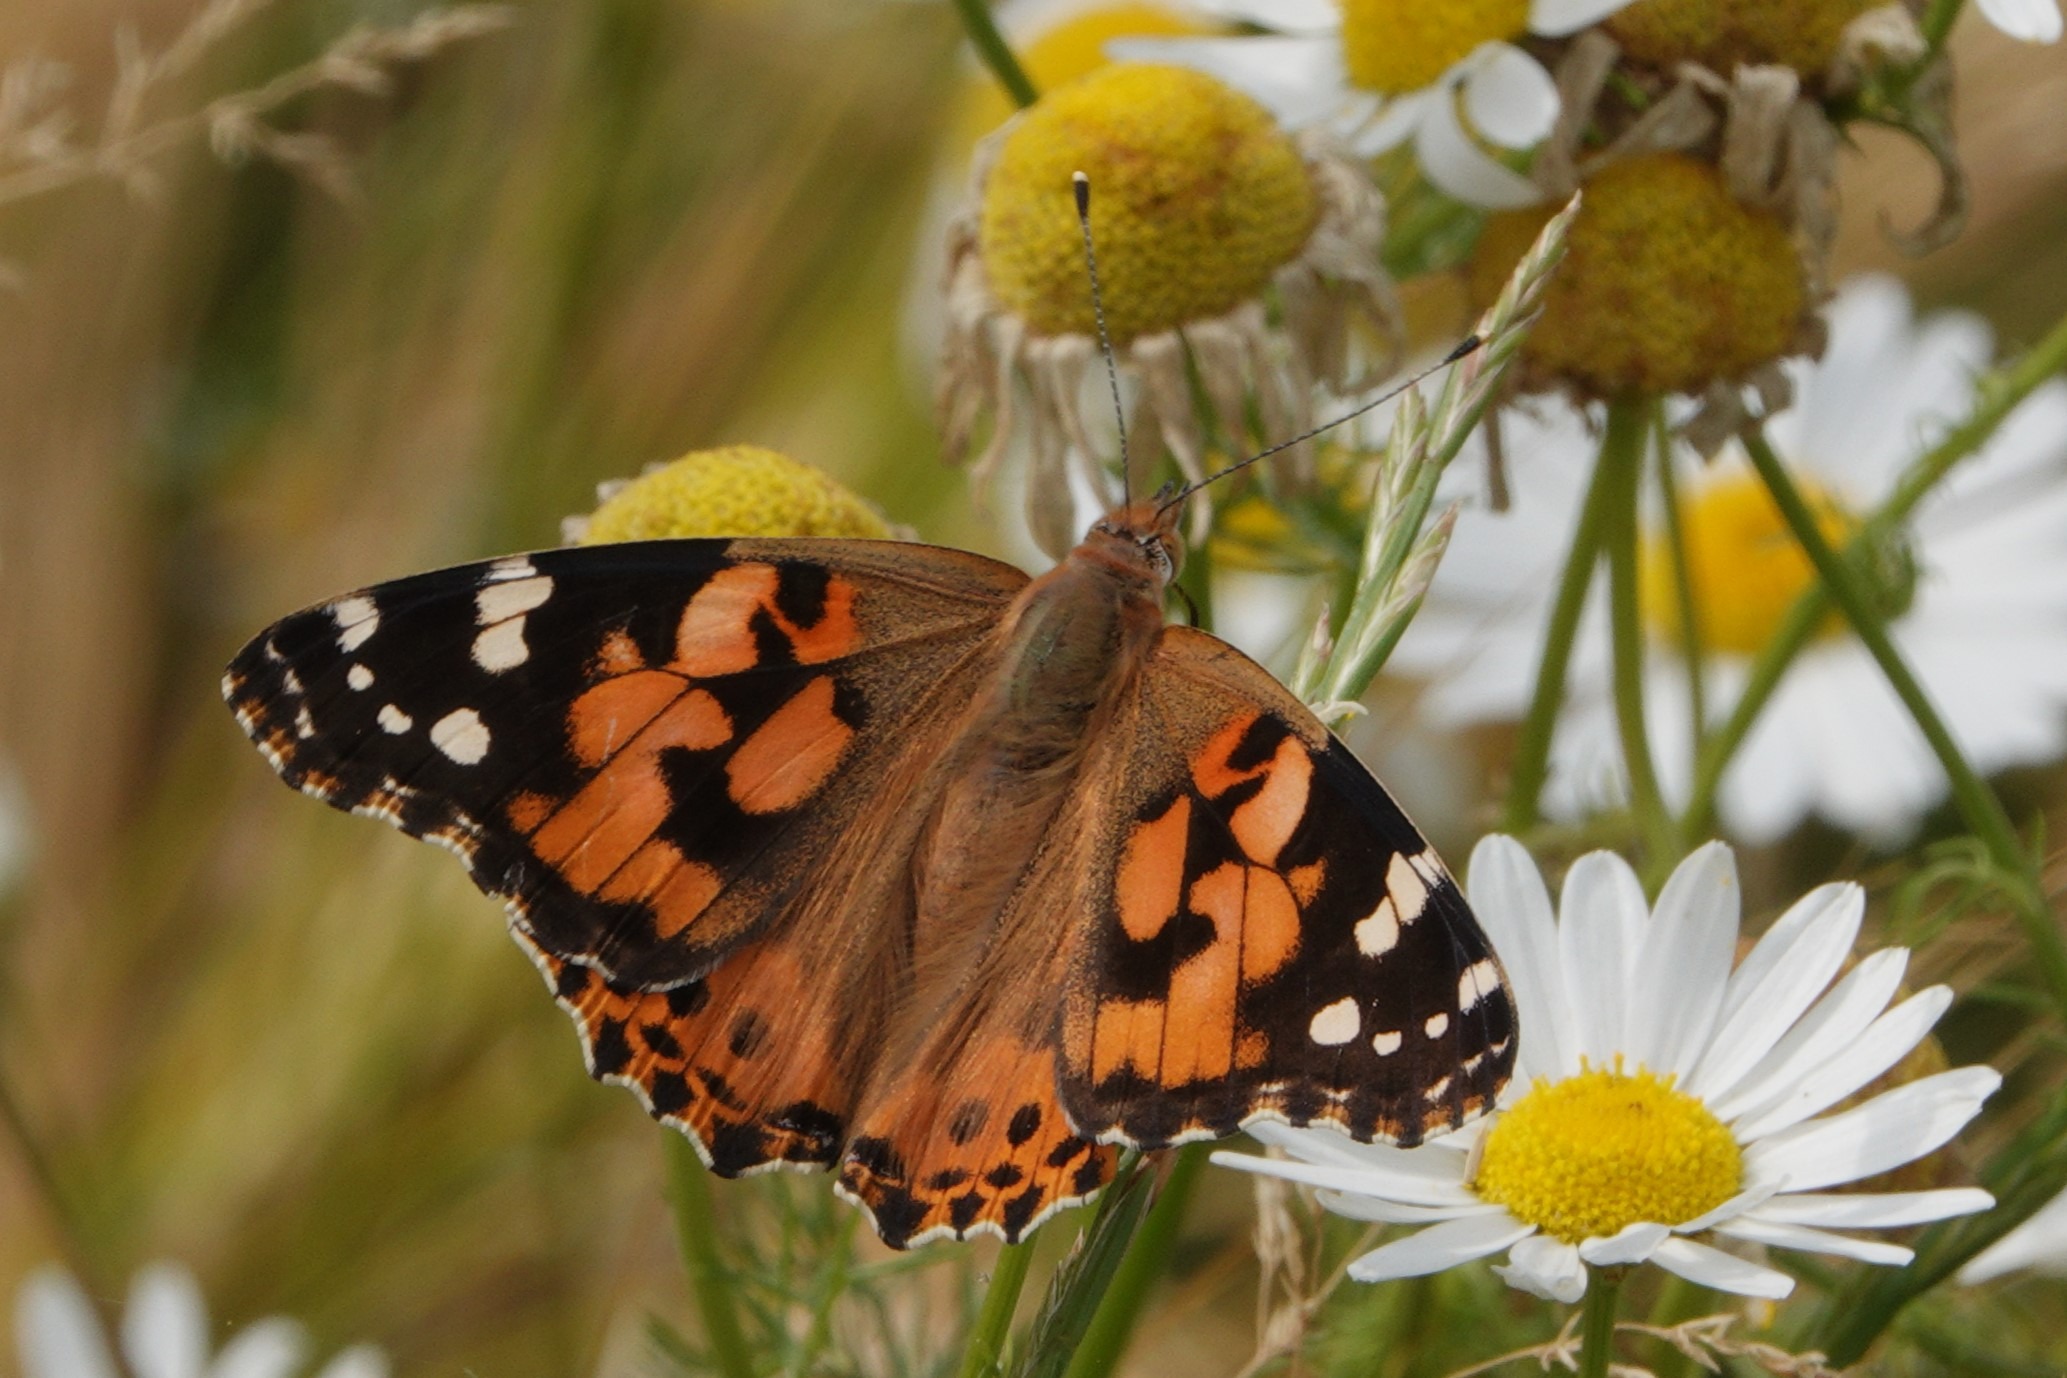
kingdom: Animalia
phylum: Arthropoda
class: Insecta
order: Lepidoptera
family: Nymphalidae
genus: Vanessa
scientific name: Vanessa cardui
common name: Tidselsommerfugl
